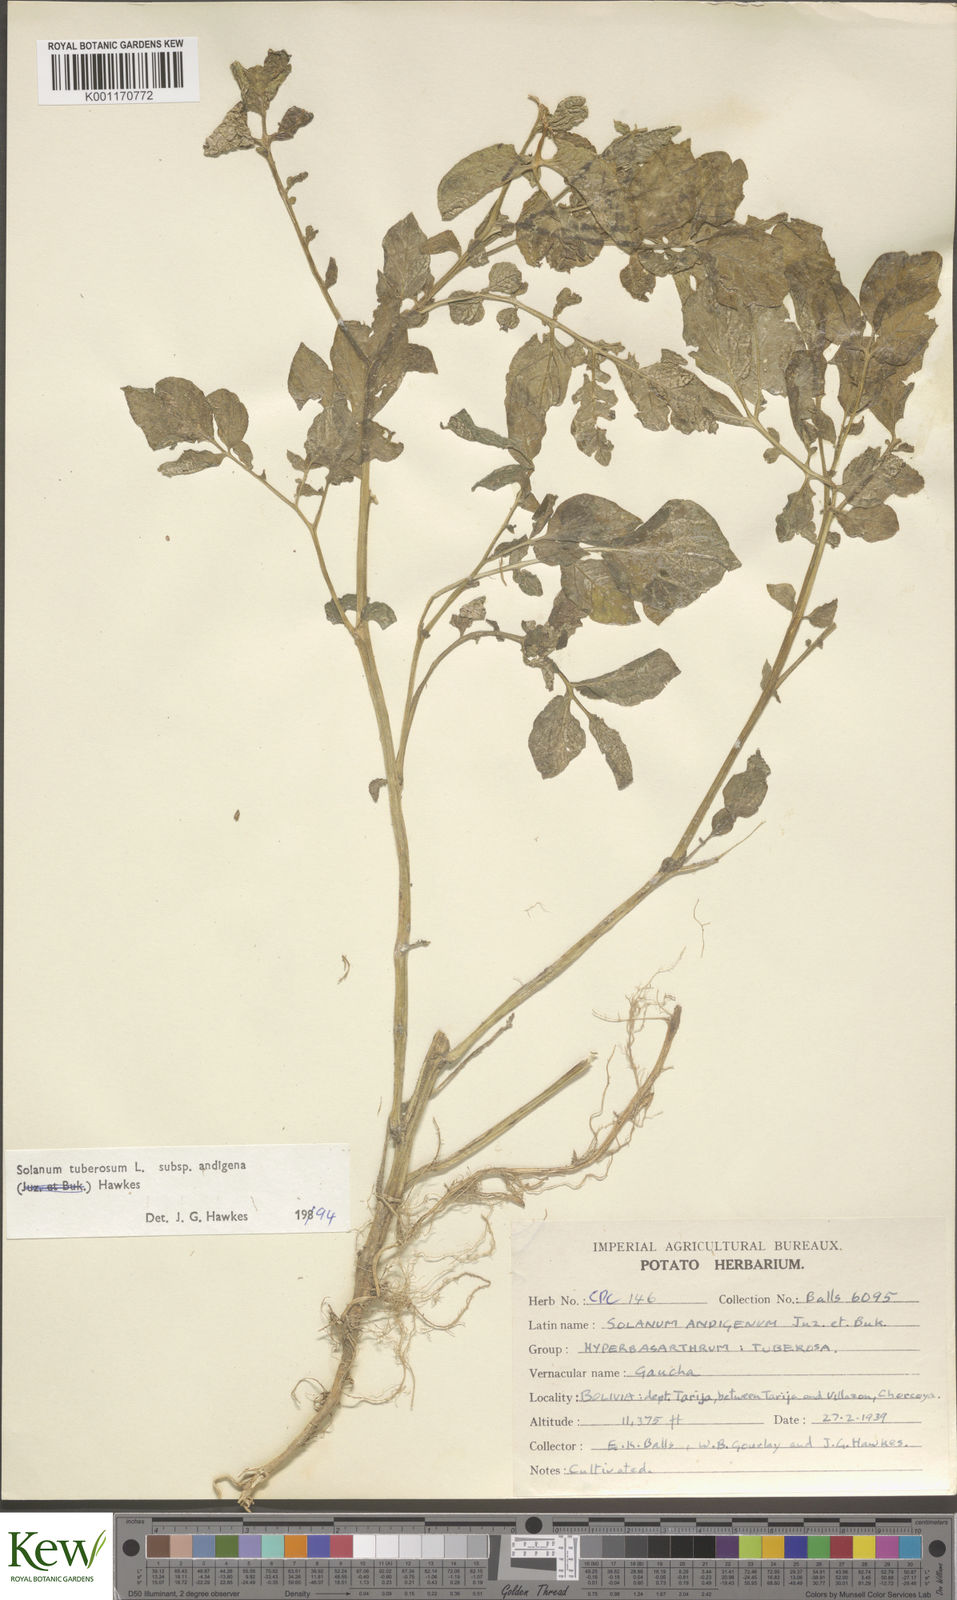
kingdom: Plantae
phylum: Tracheophyta
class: Magnoliopsida
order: Solanales
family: Solanaceae
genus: Solanum
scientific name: Solanum tuberosum
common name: Potato
